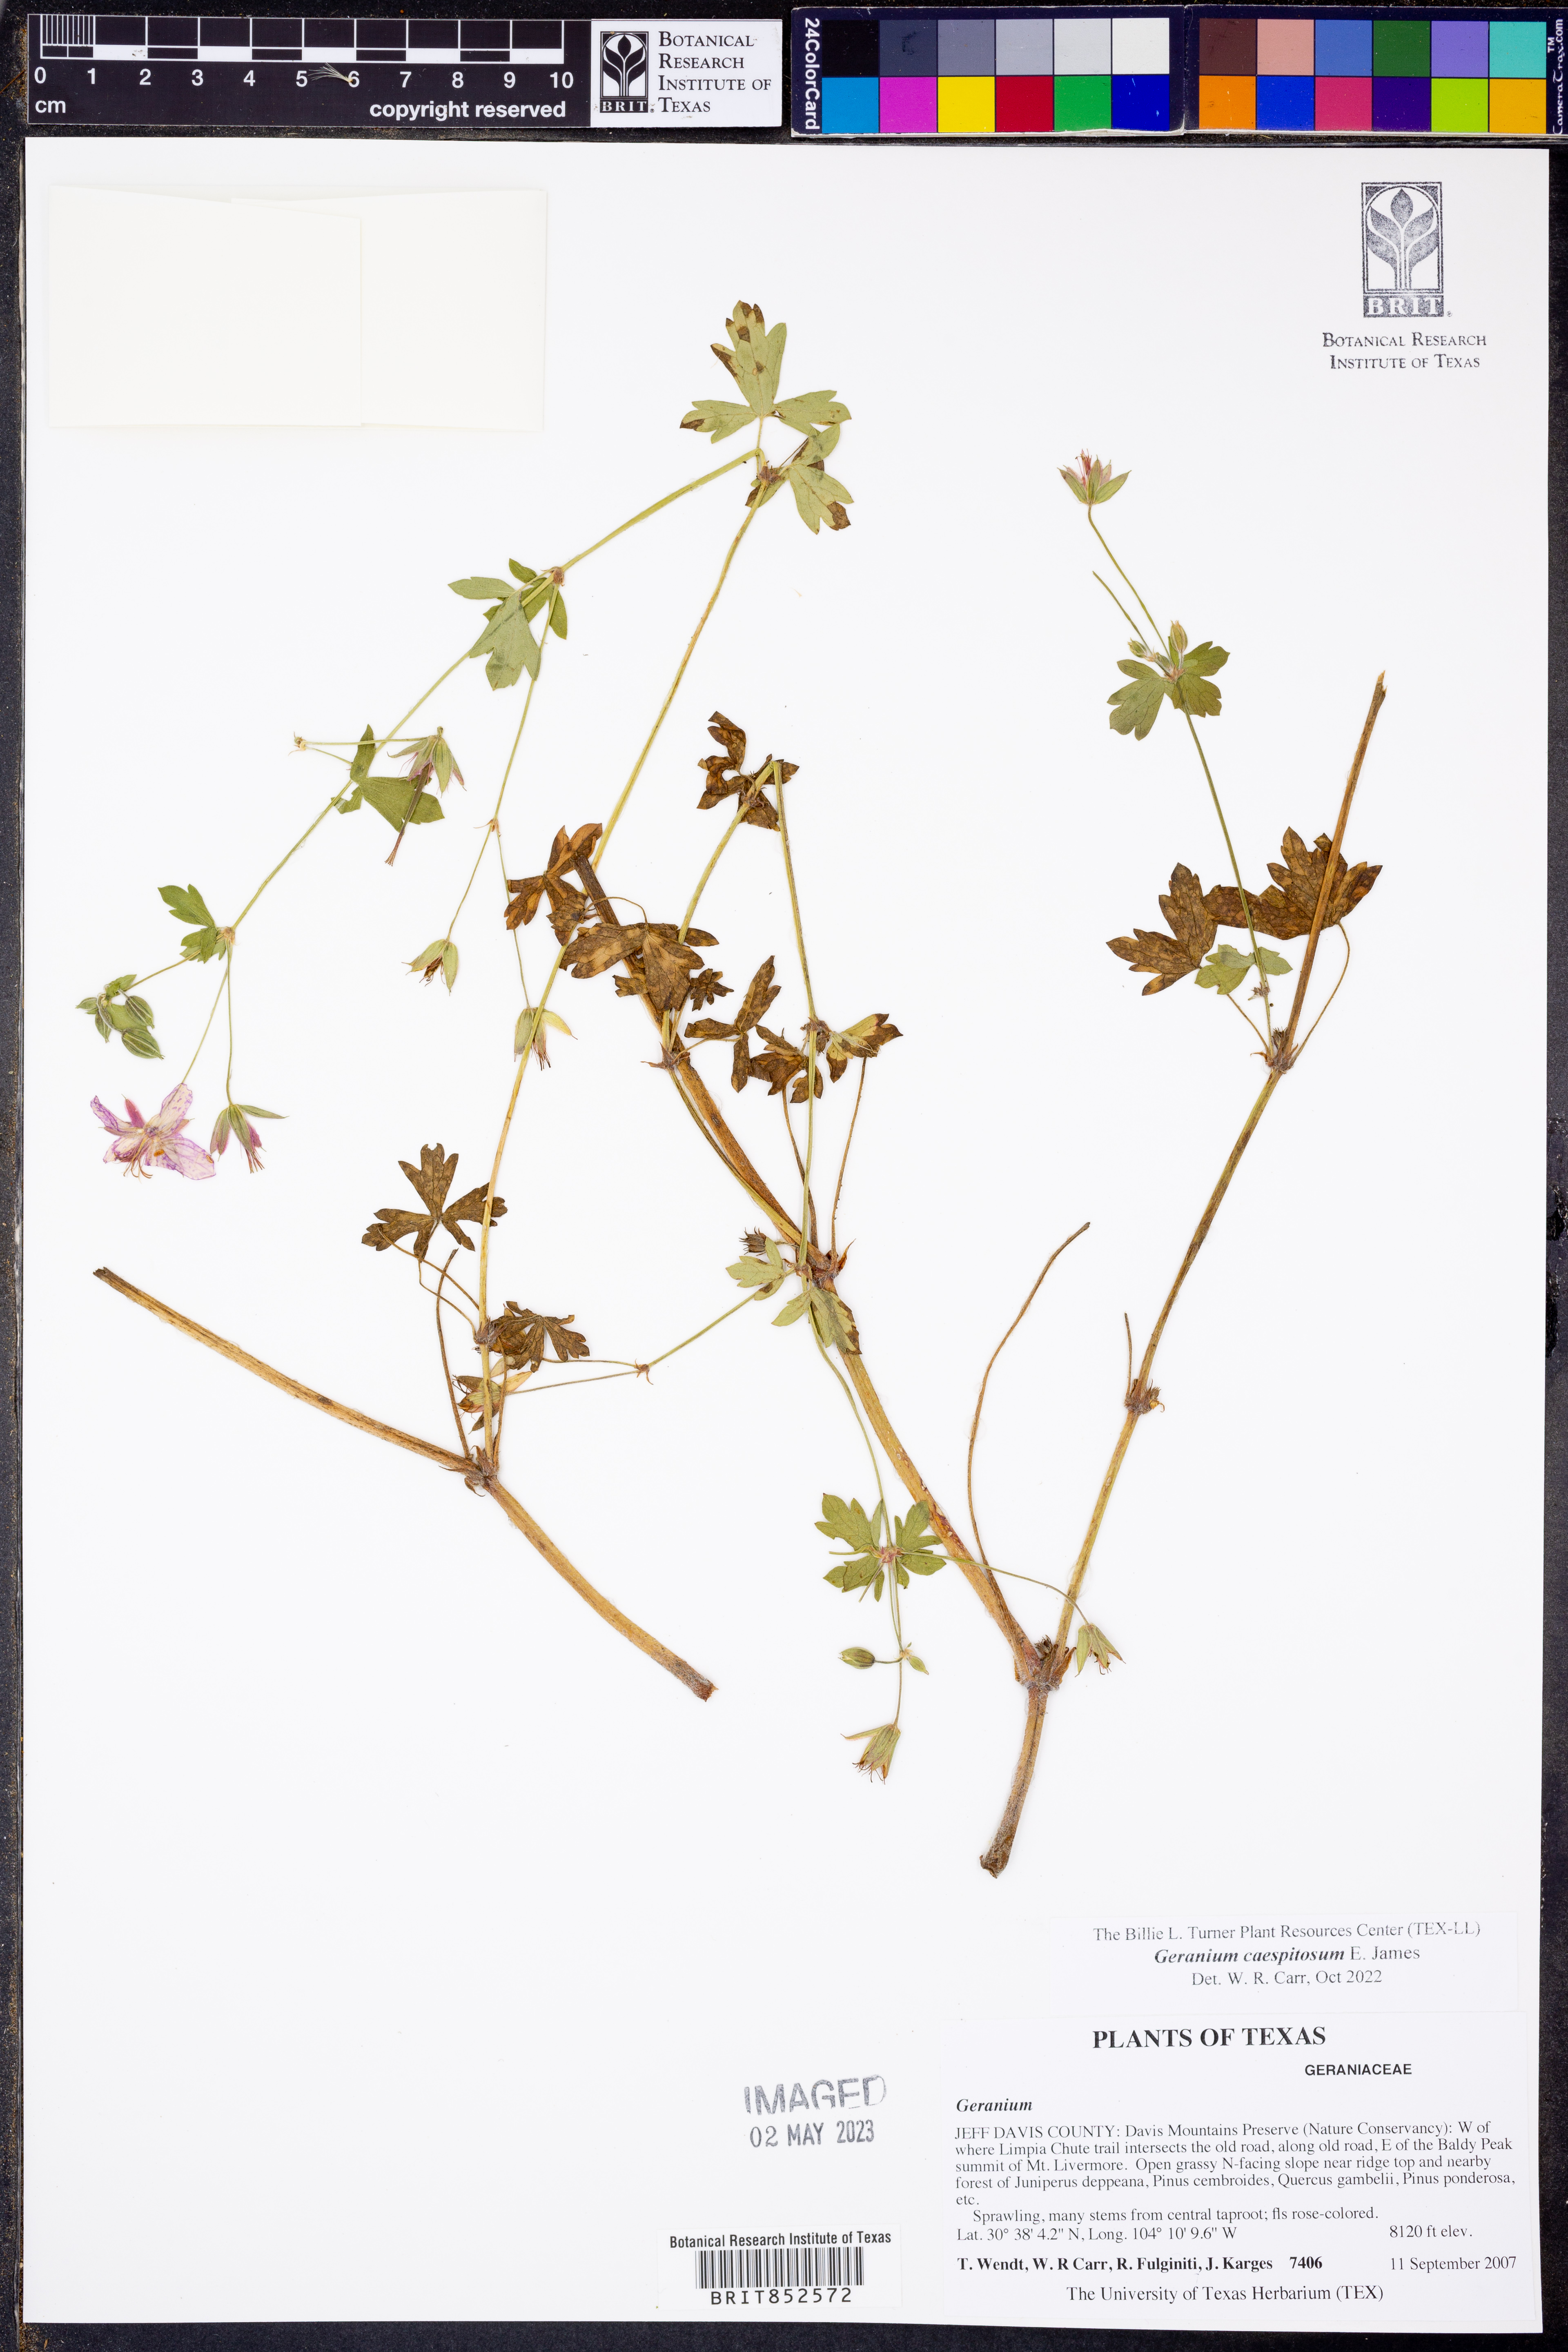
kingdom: Plantae
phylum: Tracheophyta
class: Magnoliopsida
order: Geraniales
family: Geraniaceae
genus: Geranium
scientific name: Geranium caespitosum
